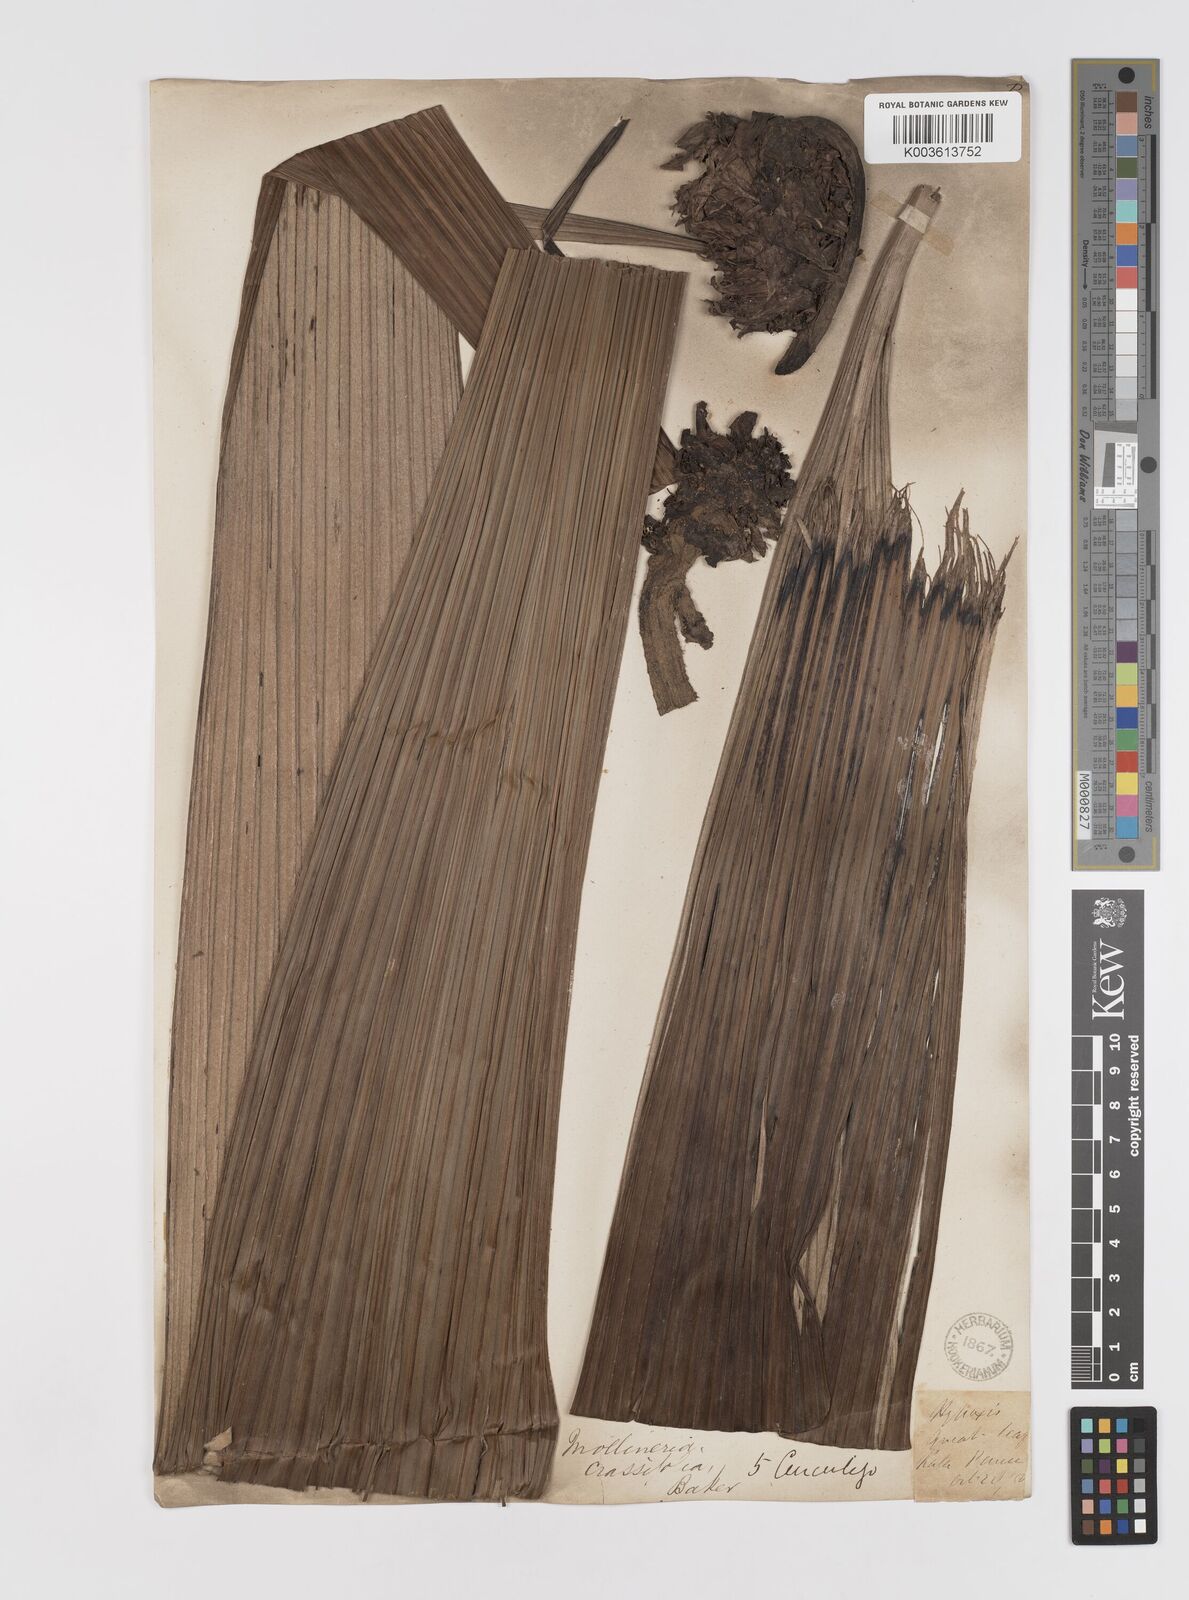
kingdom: Plantae
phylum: Tracheophyta
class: Liliopsida
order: Asparagales
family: Hypoxidaceae
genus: Curculigo
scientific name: Curculigo crassifolia
